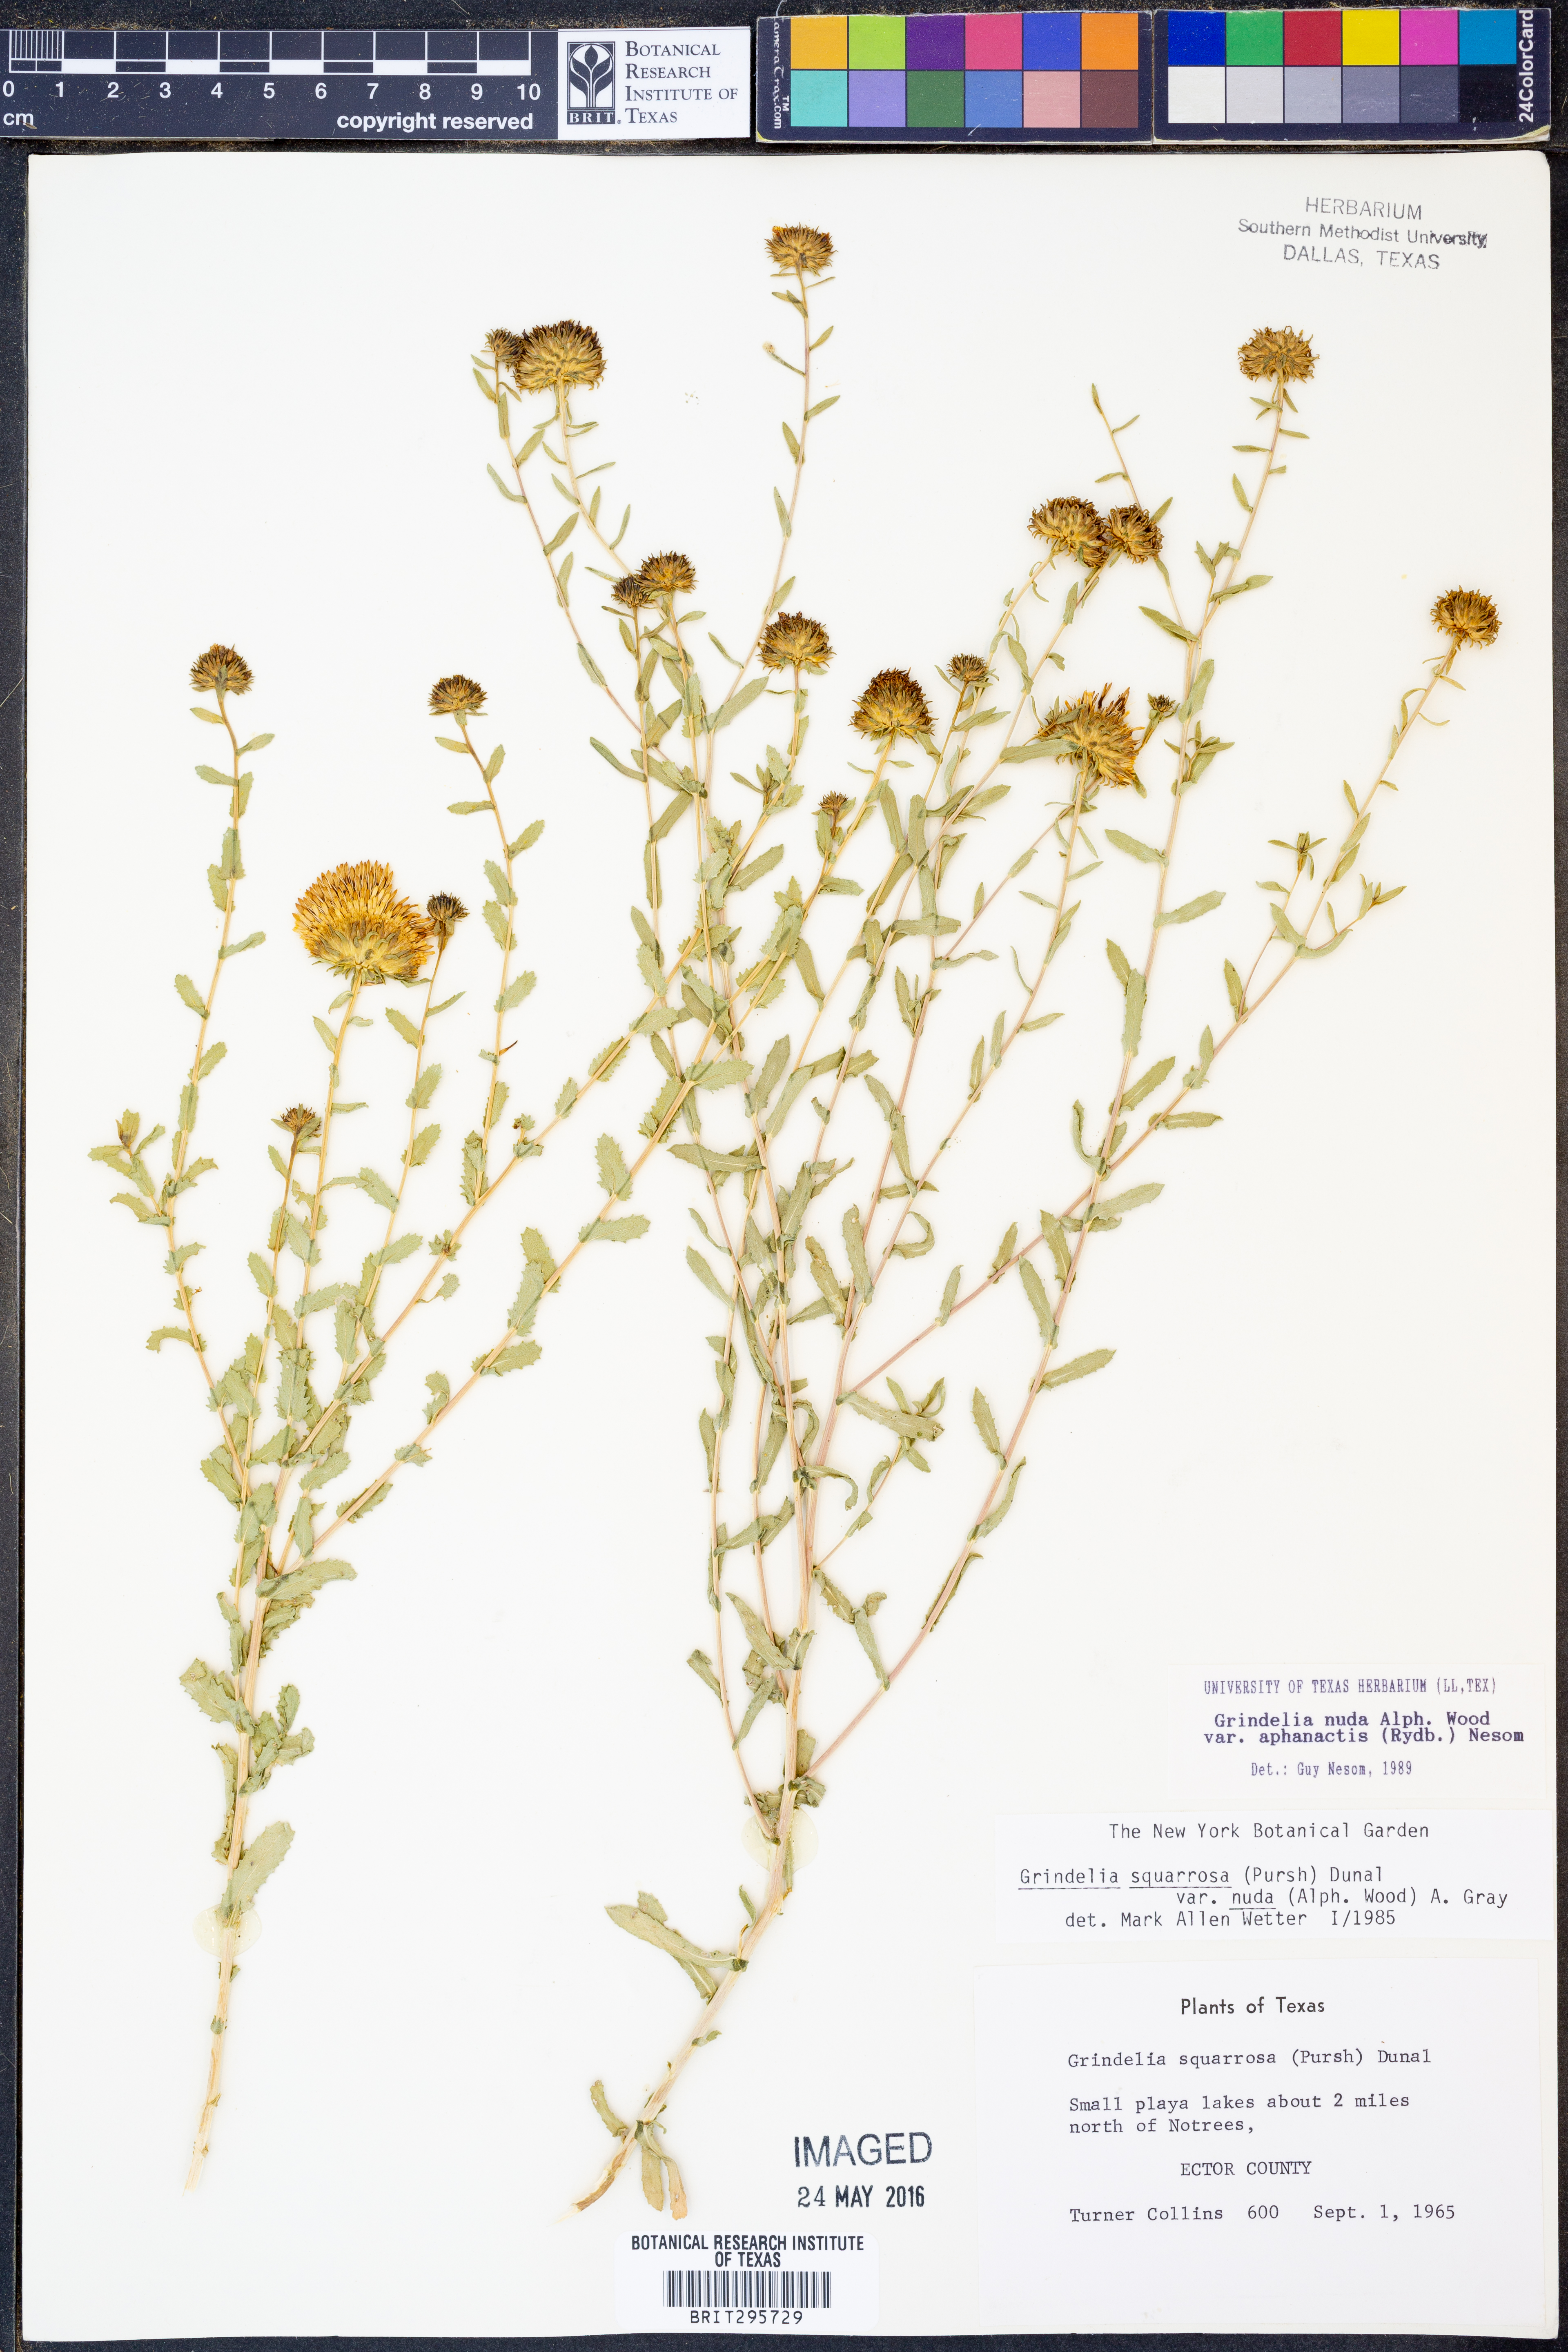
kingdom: Plantae
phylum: Tracheophyta
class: Magnoliopsida
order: Asterales
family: Asteraceae
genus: Grindelia
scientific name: Grindelia nuda
